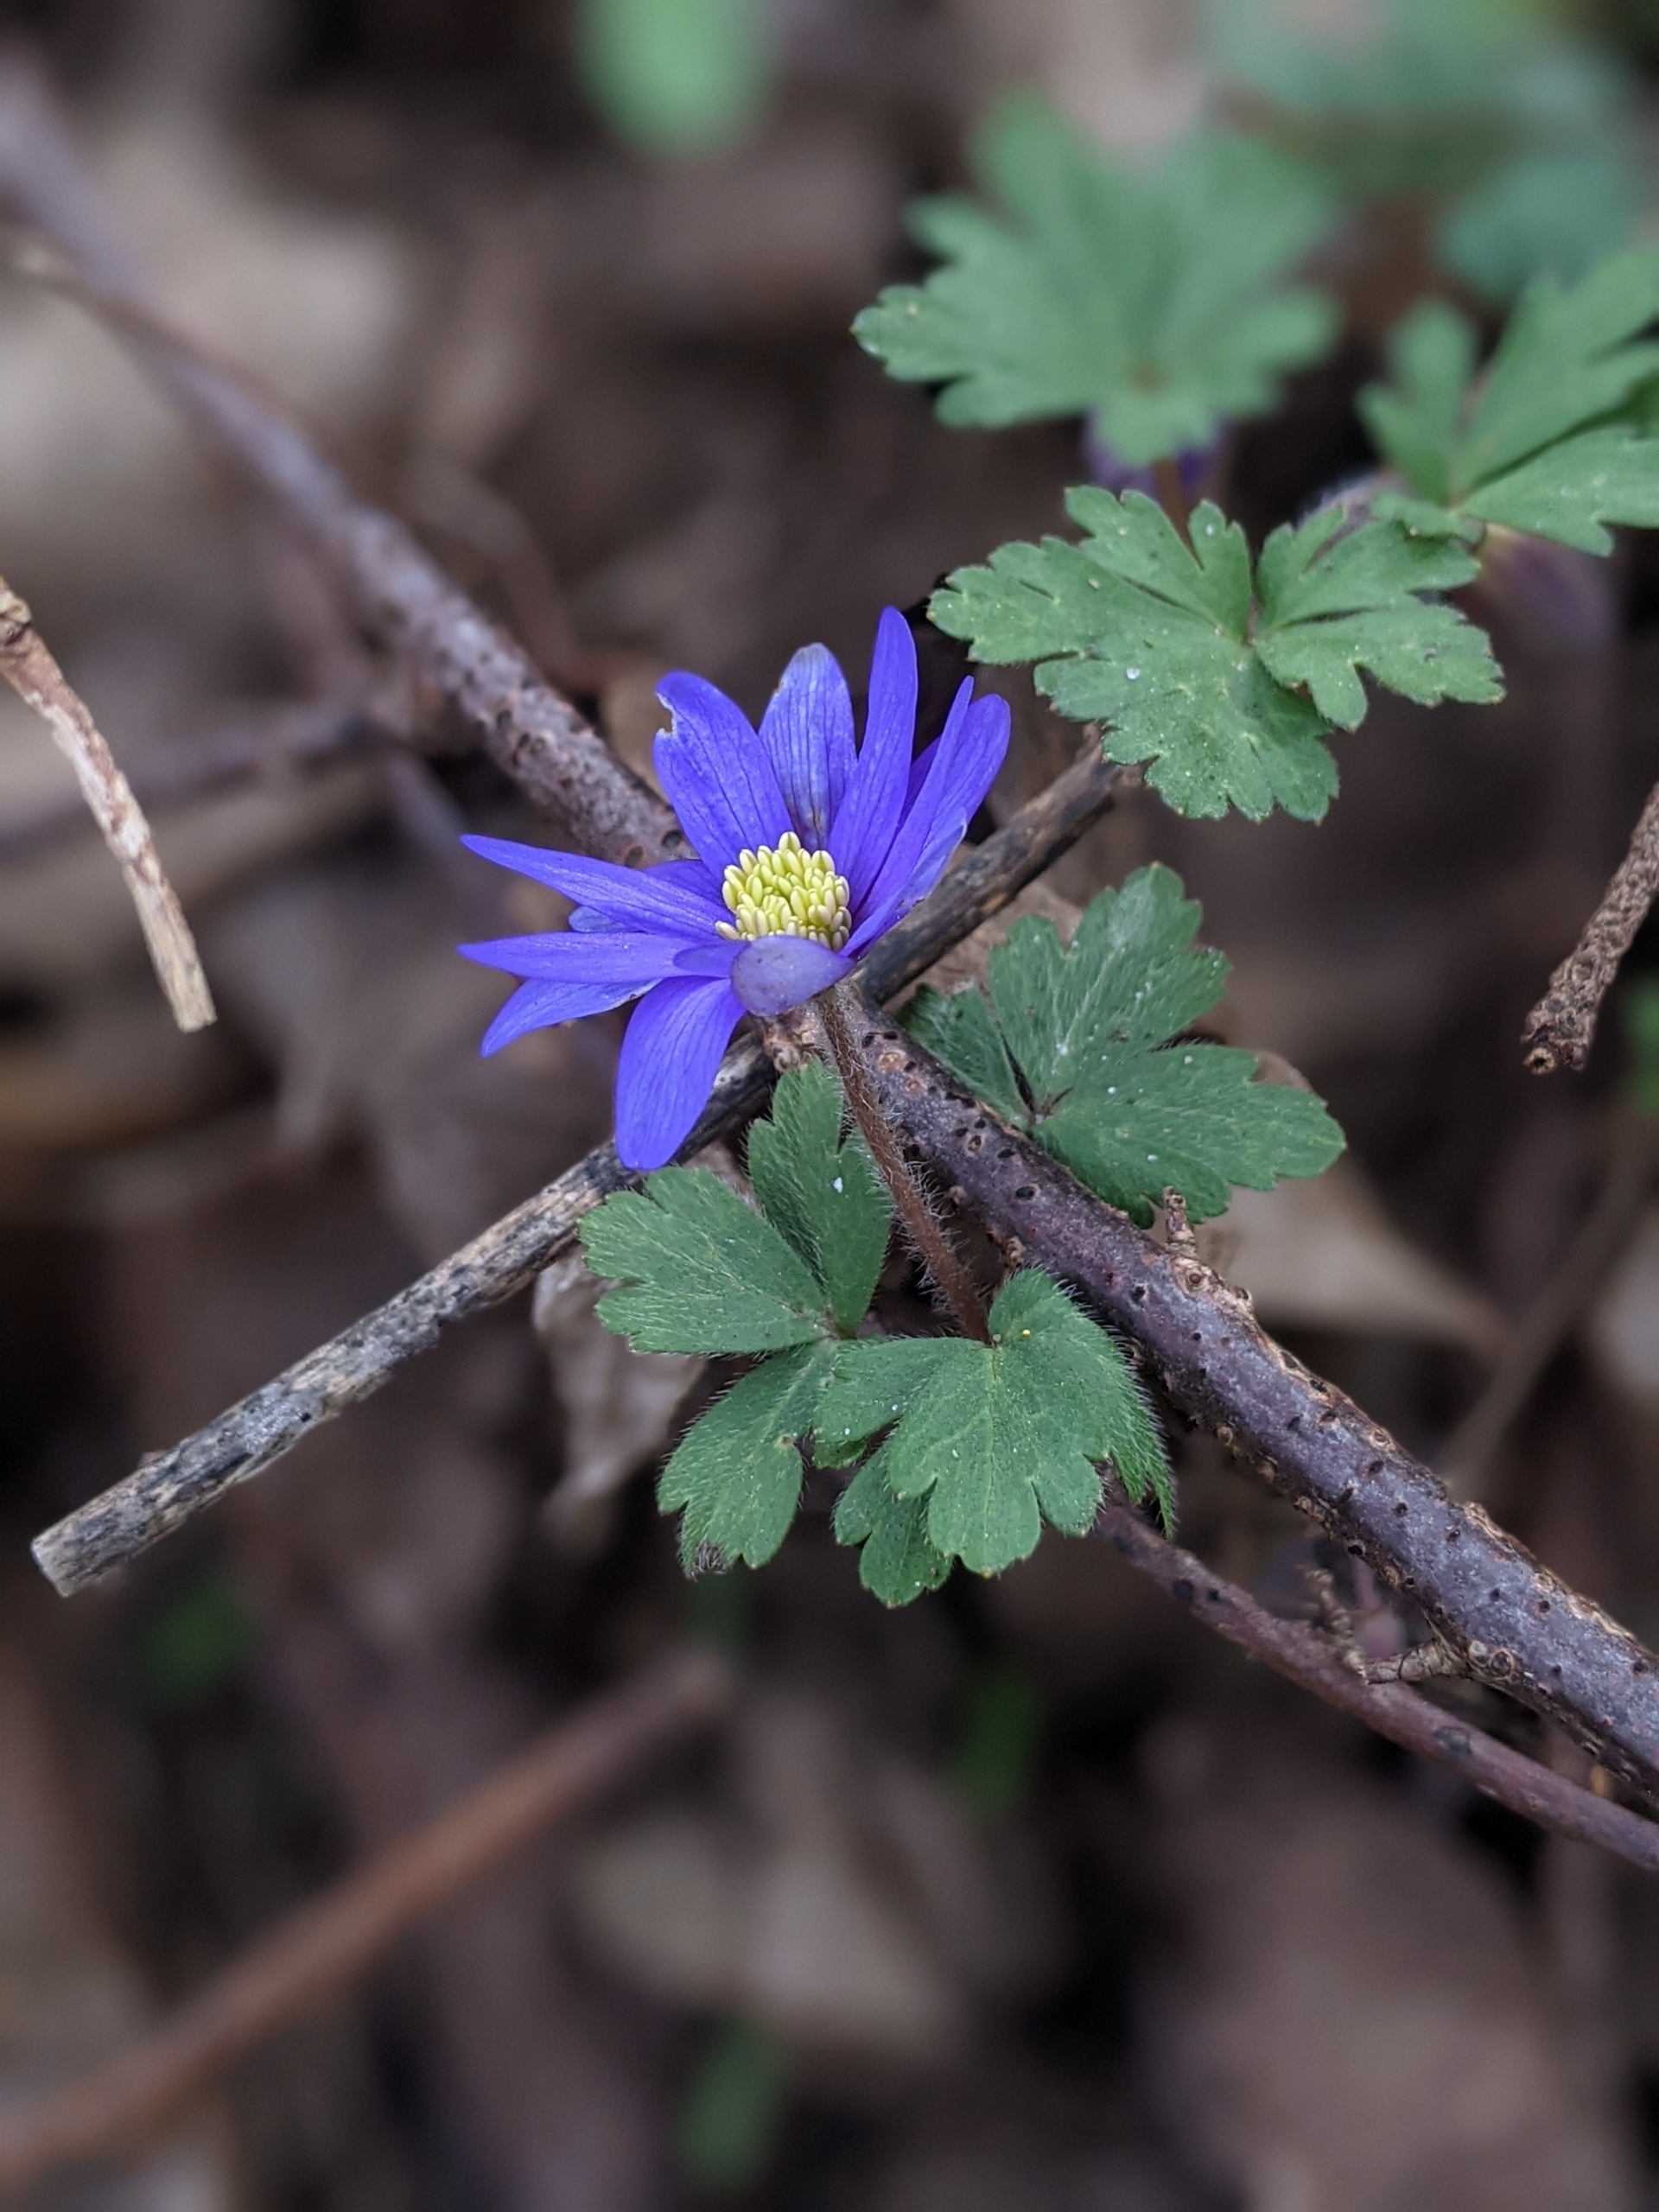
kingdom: Plantae
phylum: Tracheophyta
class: Magnoliopsida
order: Ranunculales
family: Ranunculaceae
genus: Anemone
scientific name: Anemone blanda
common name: Balkan-anemone
